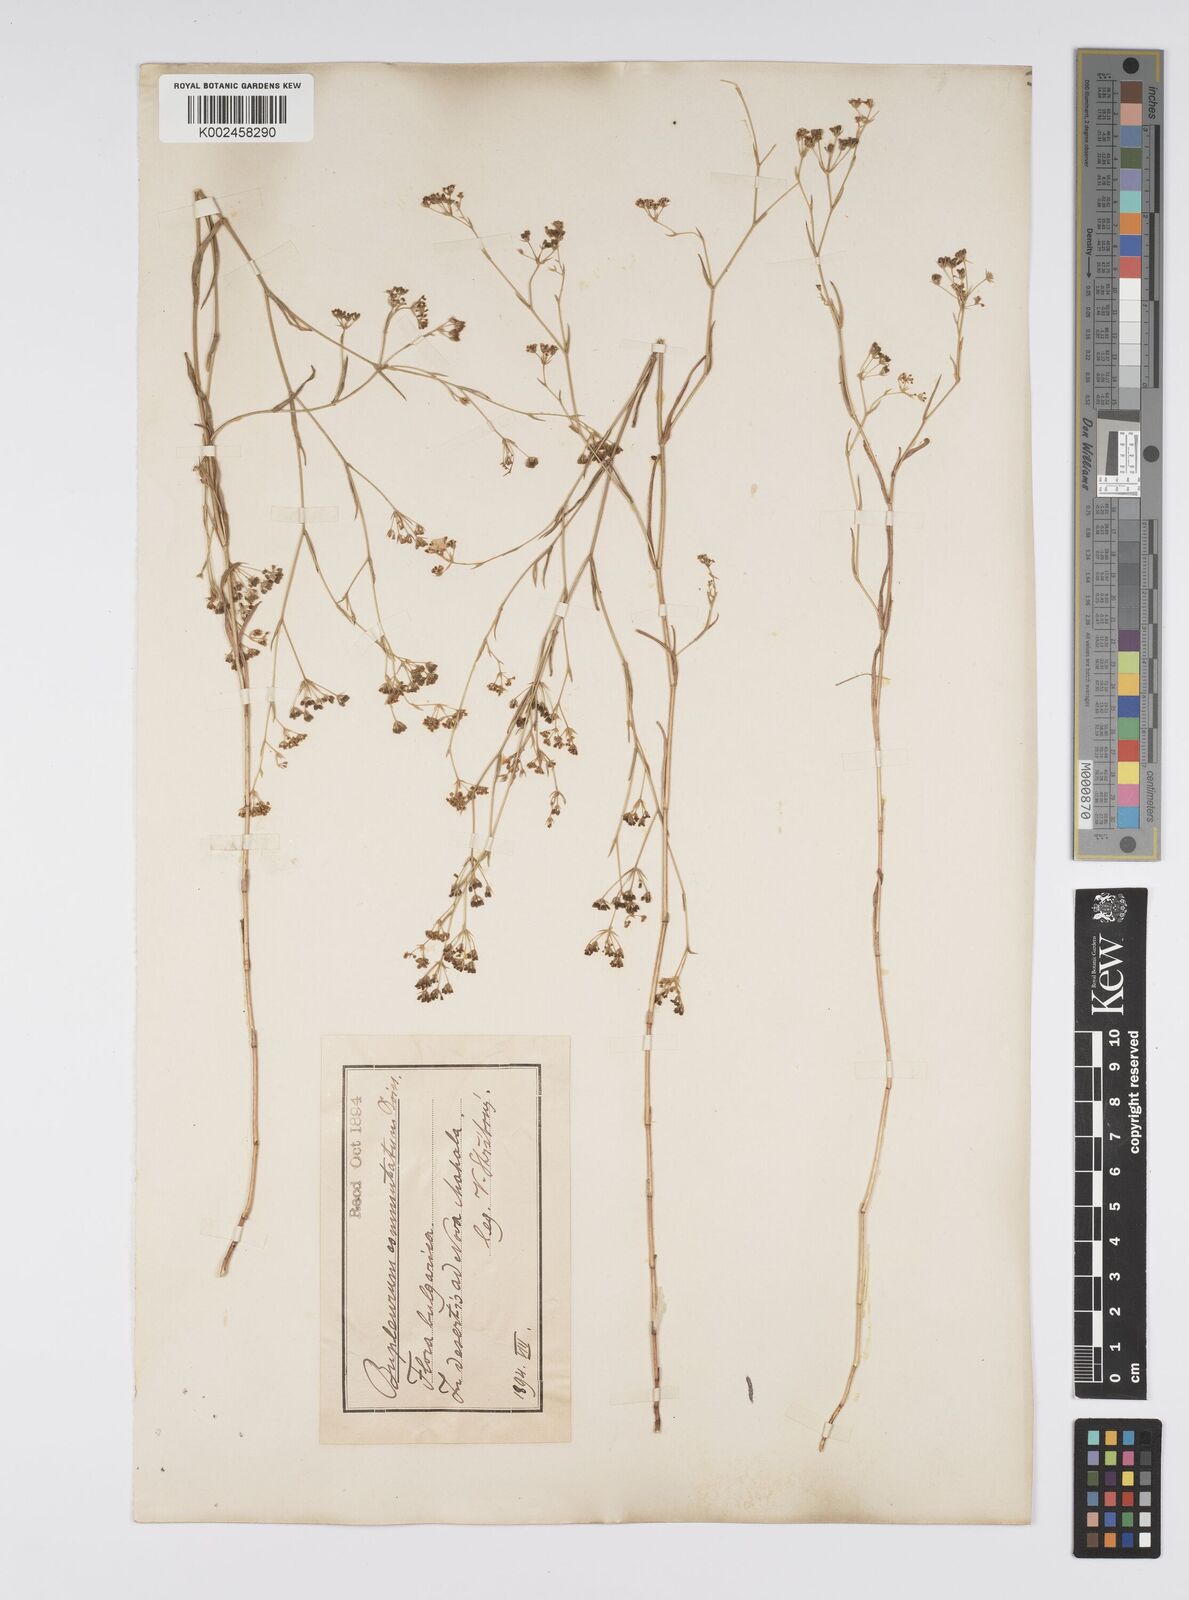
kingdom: Plantae
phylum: Tracheophyta
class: Magnoliopsida
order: Apiales
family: Apiaceae
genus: Bupleurum
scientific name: Bupleurum commutatum
